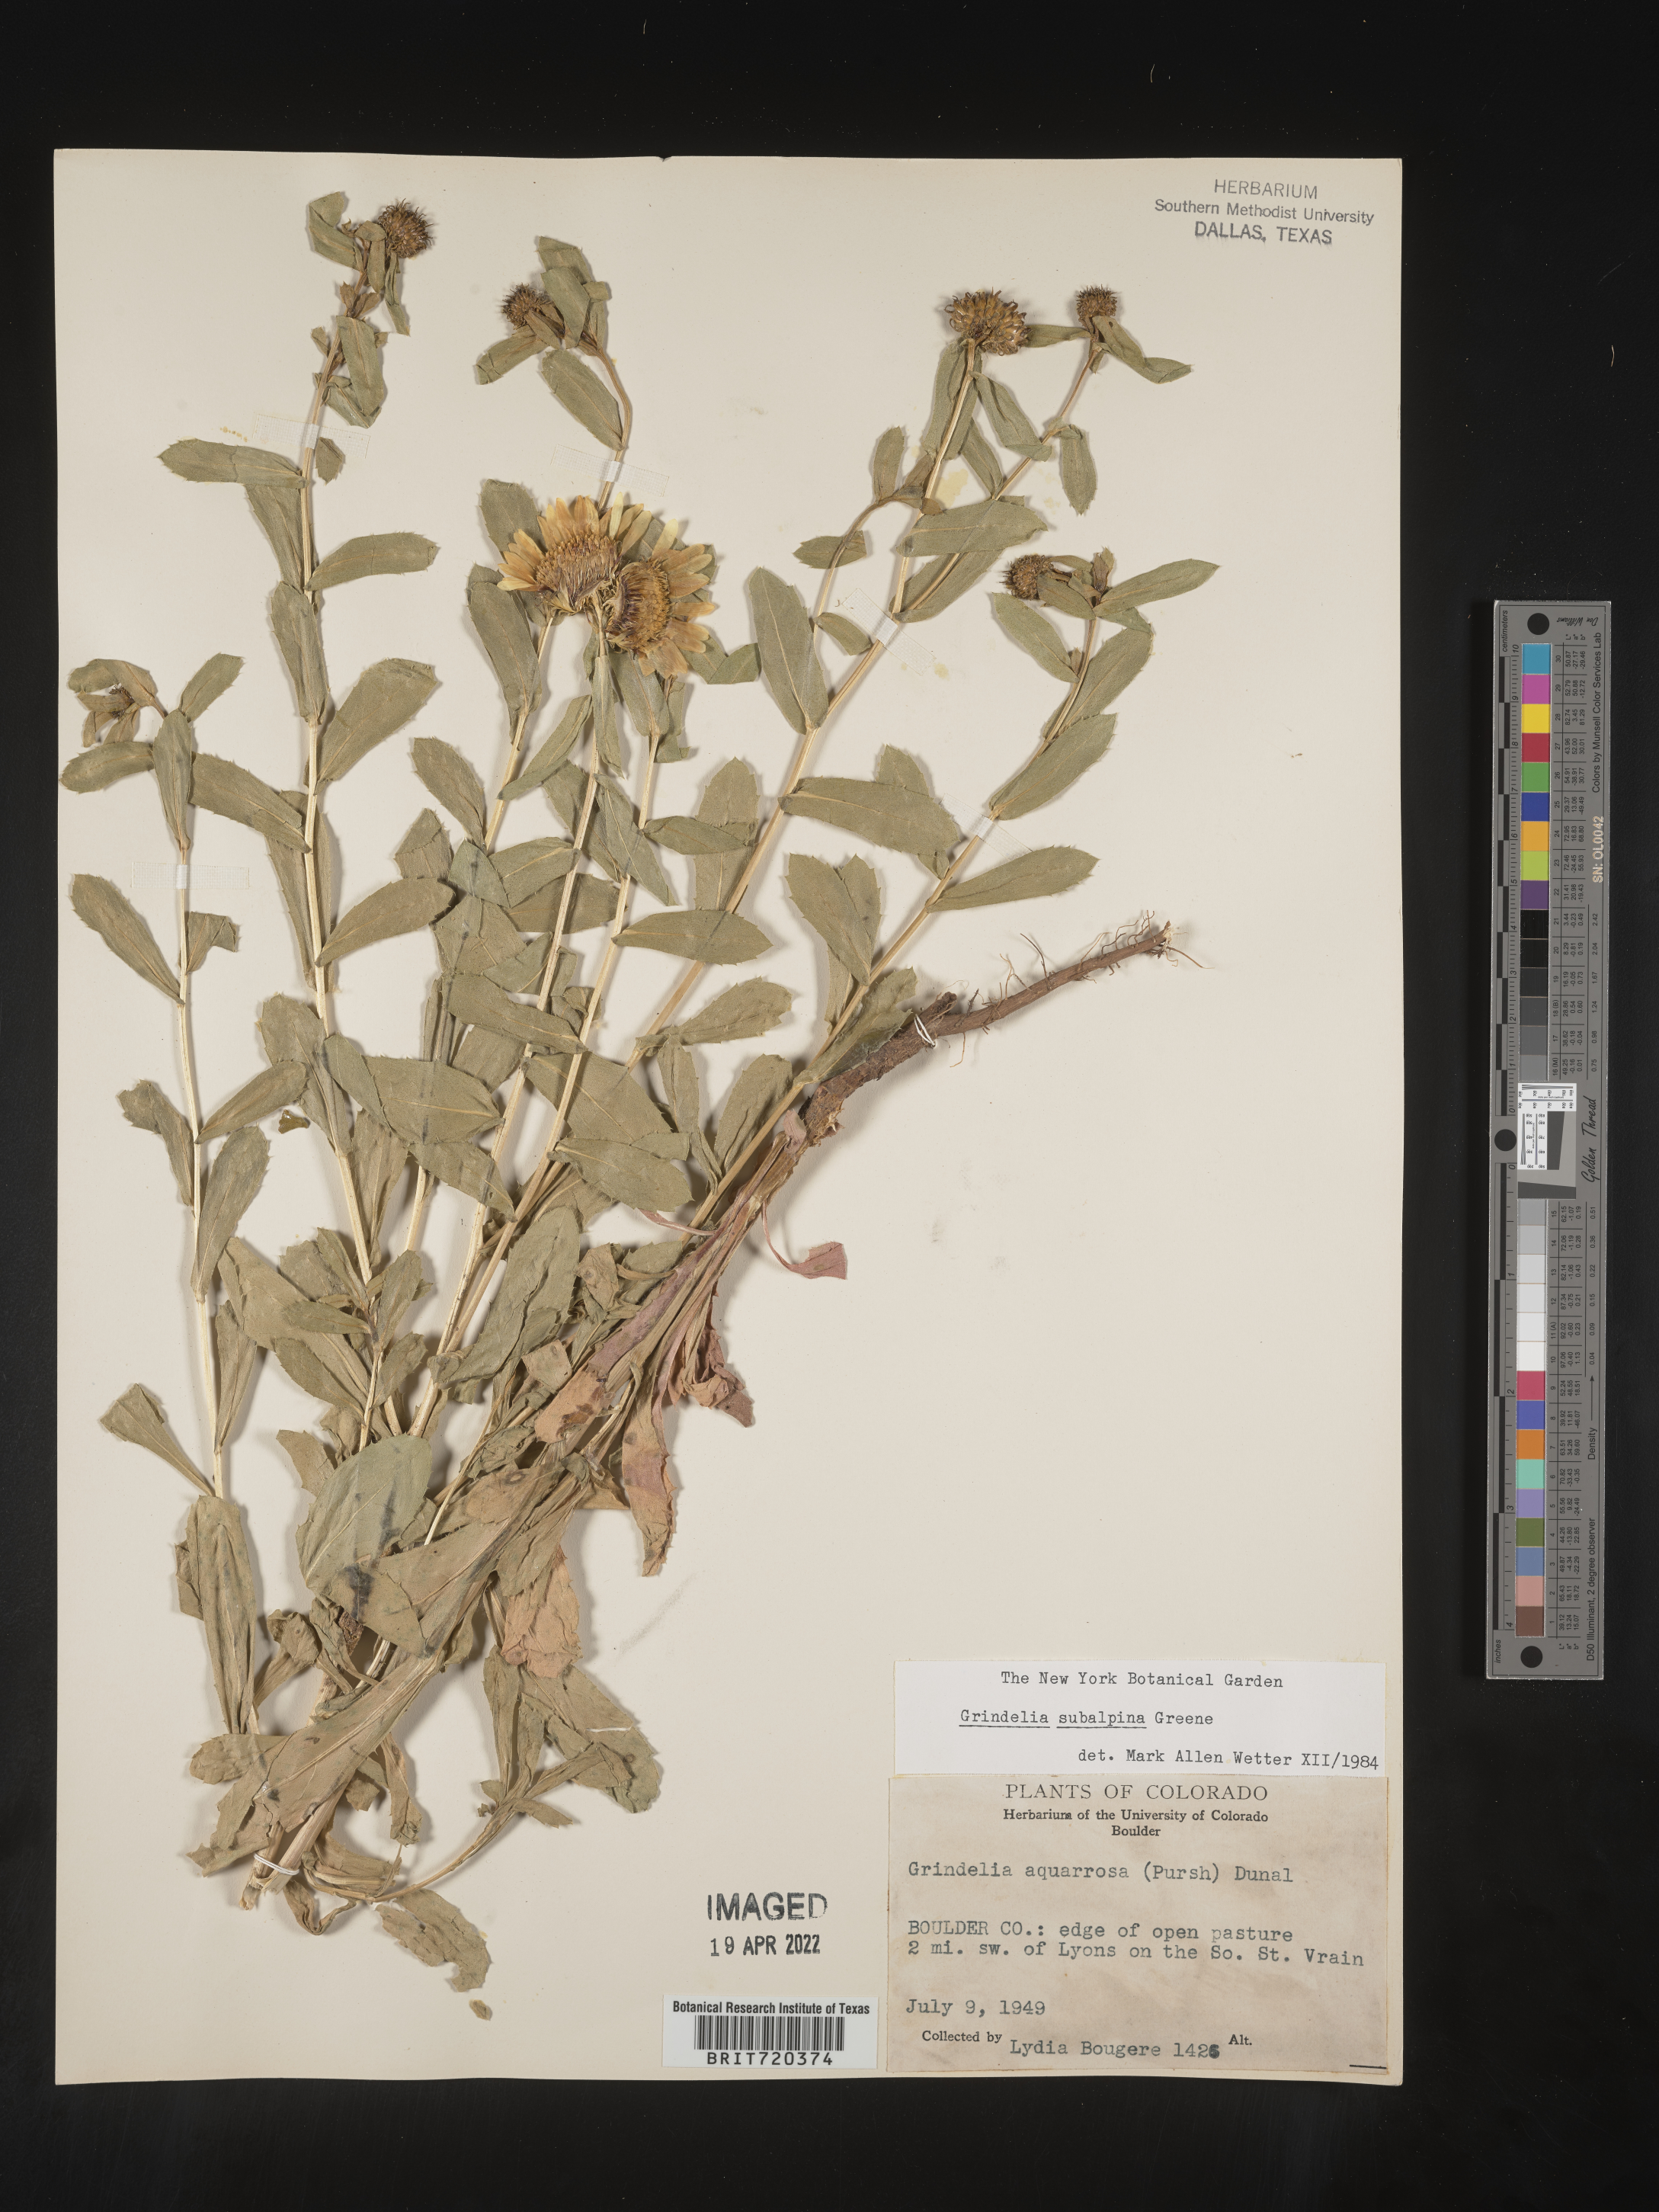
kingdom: Plantae
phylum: Tracheophyta
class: Magnoliopsida
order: Asterales
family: Asteraceae
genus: Grindelia
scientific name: Grindelia subalpina
